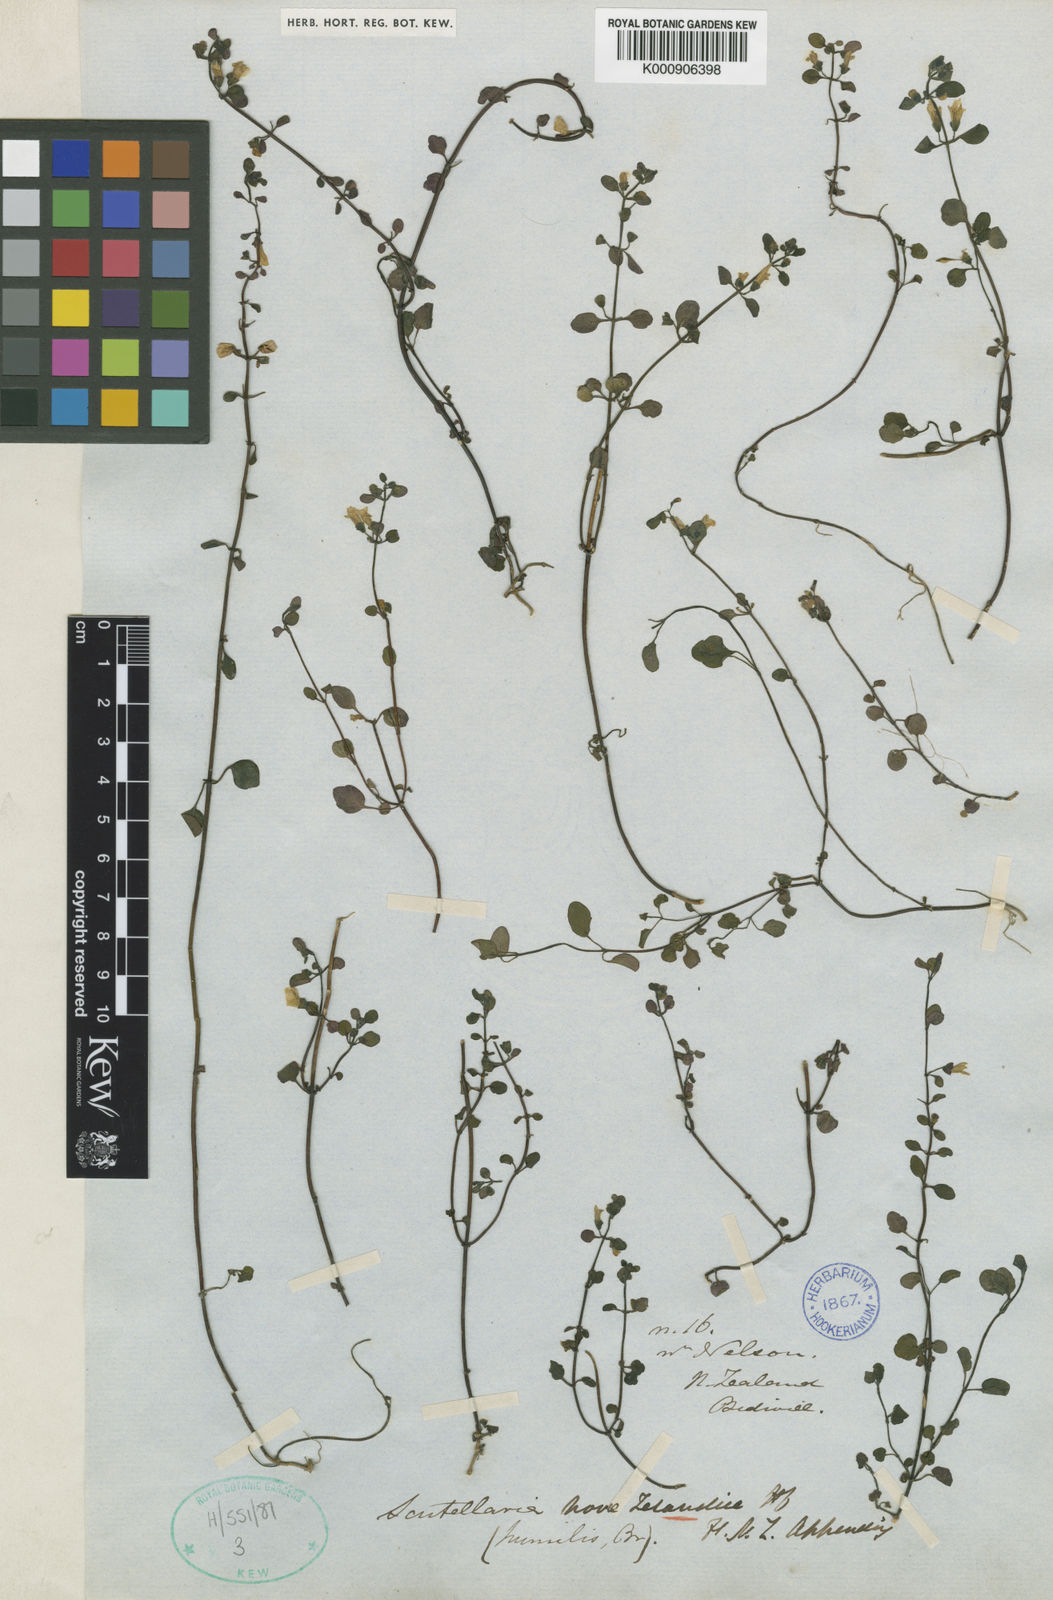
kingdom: Plantae
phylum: Tracheophyta
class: Magnoliopsida
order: Lamiales
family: Lamiaceae
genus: Scutellaria
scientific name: Scutellaria novae-zelandiae
